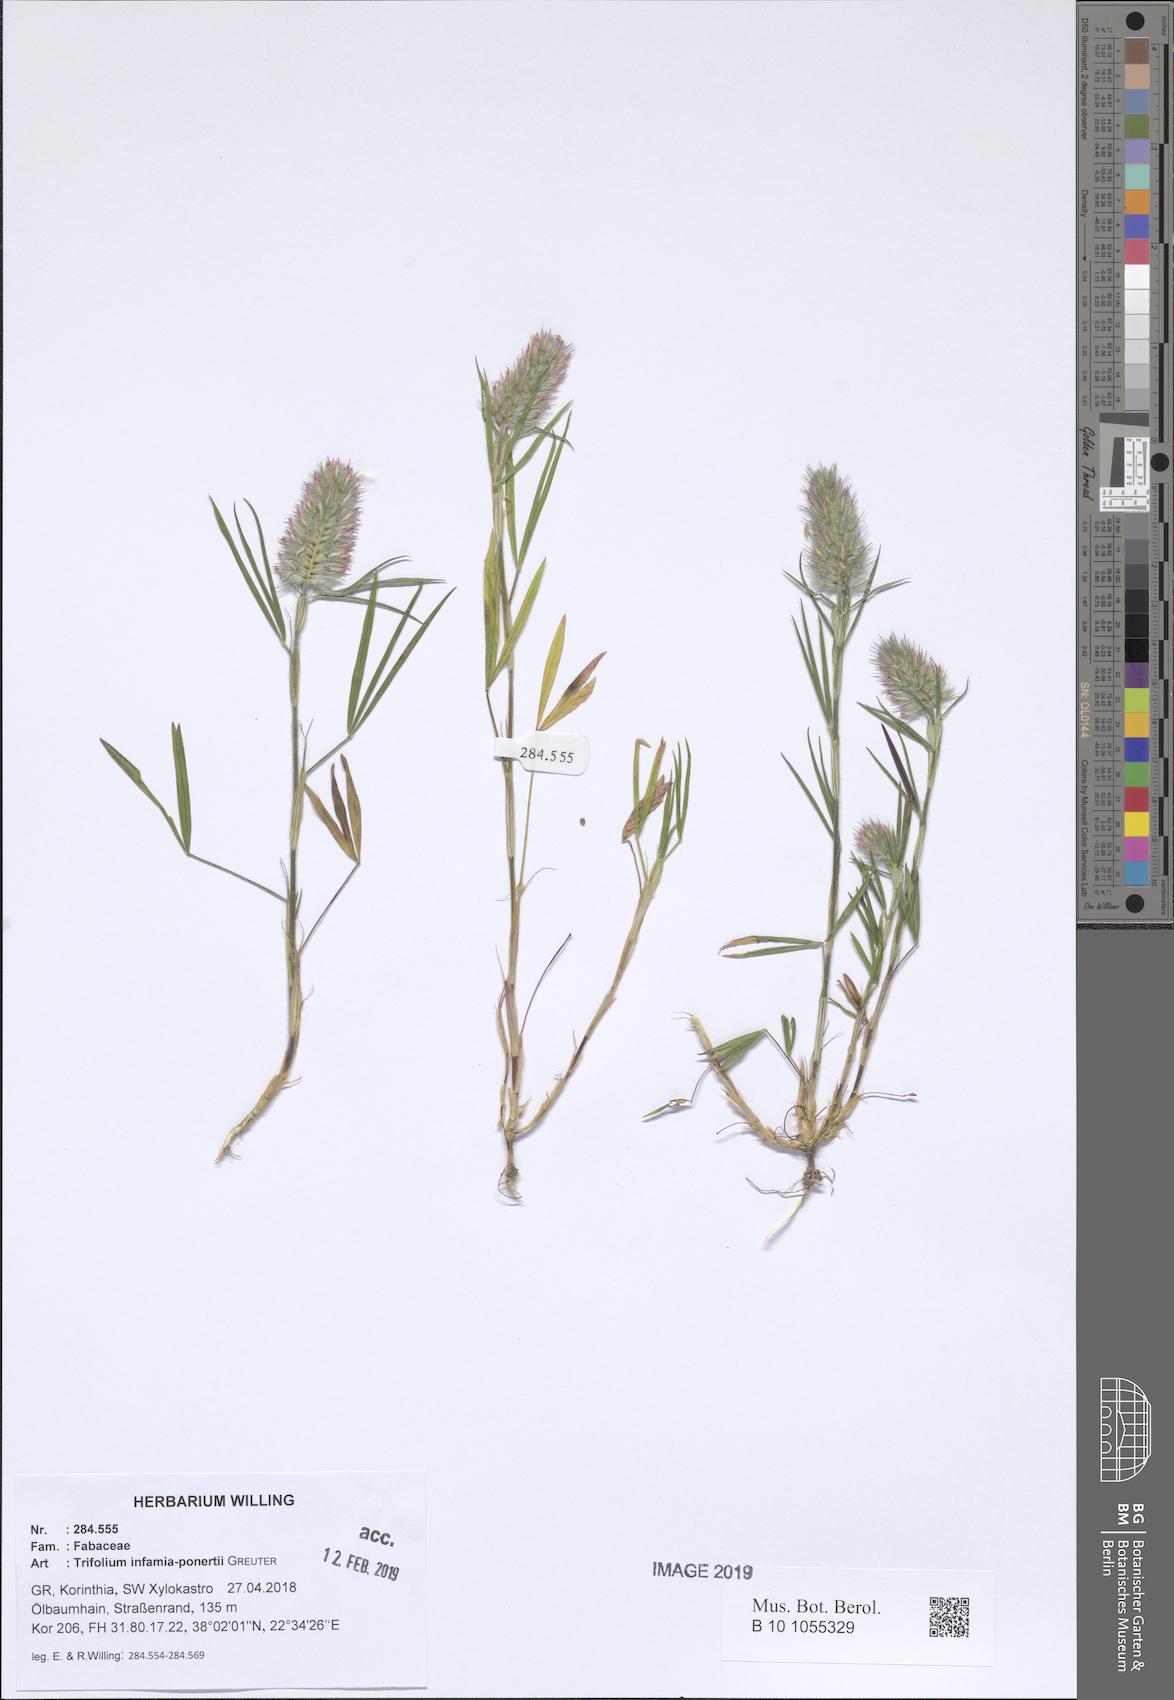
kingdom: Plantae
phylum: Tracheophyta
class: Magnoliopsida
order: Fabales
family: Fabaceae
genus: Trifolium
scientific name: Trifolium infamia-ponertii
